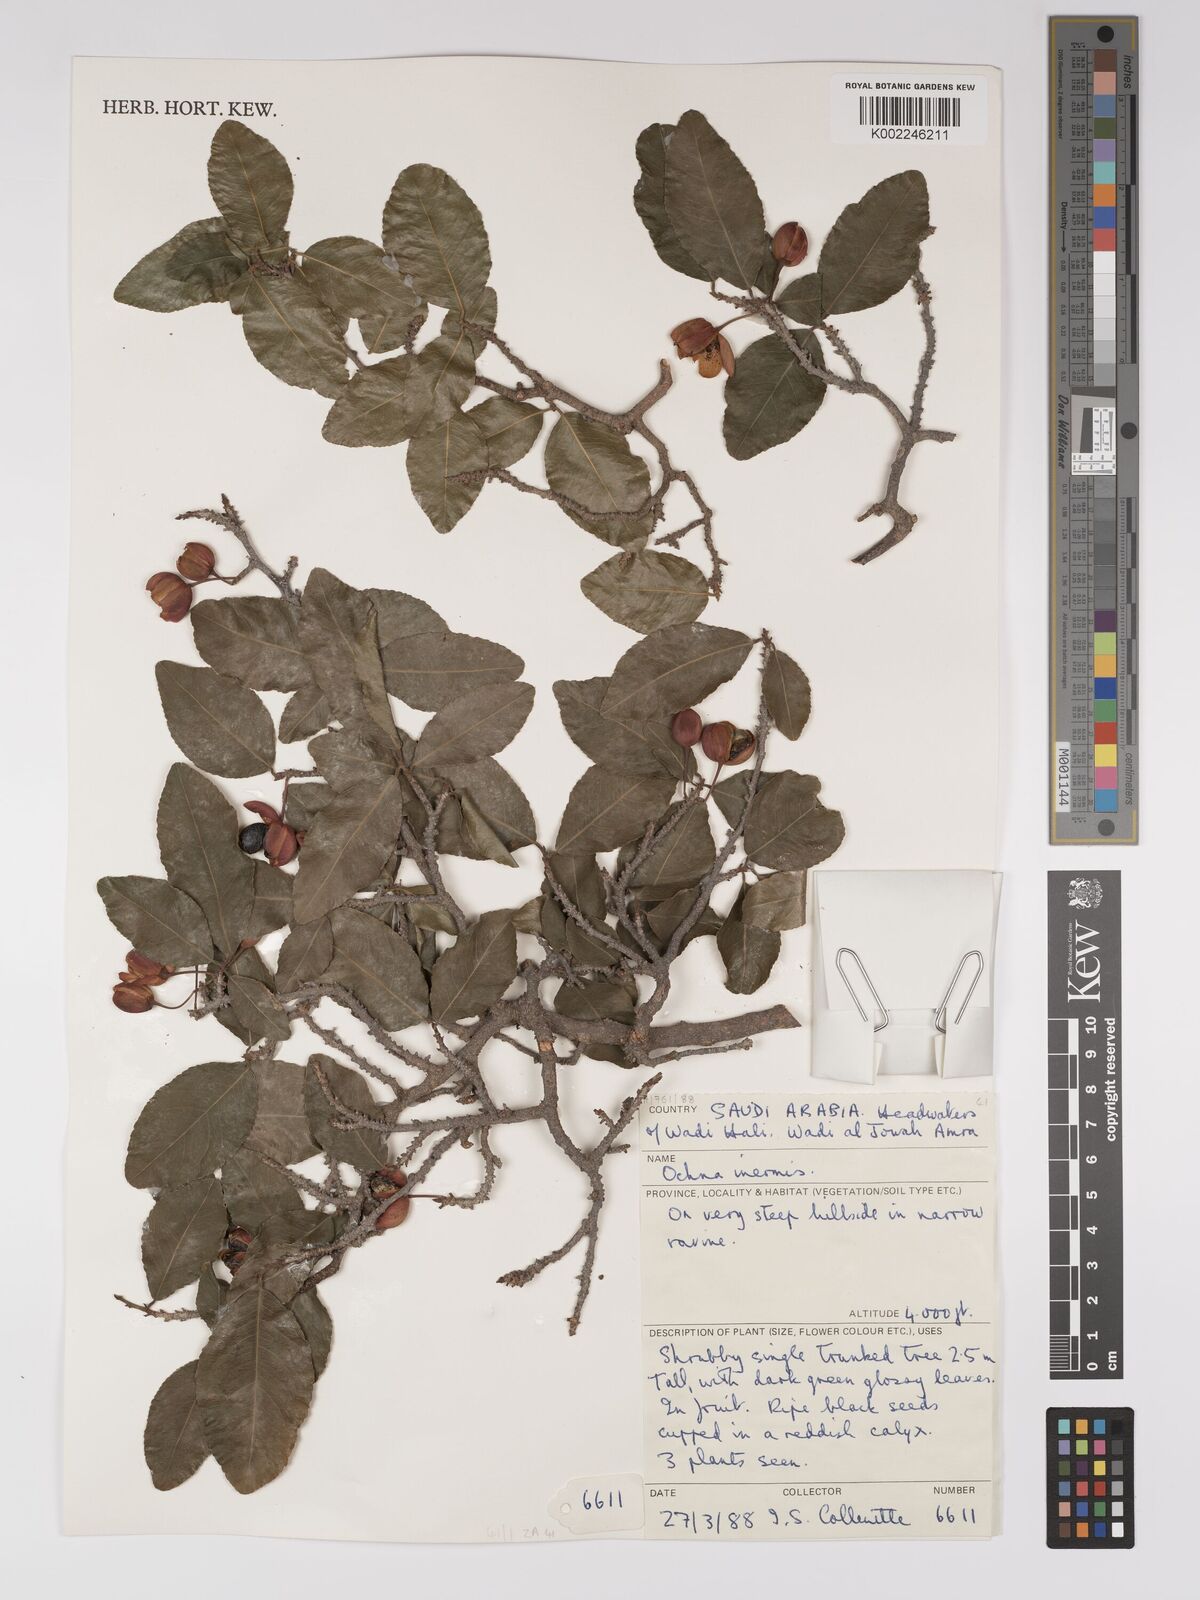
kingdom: Plantae
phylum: Tracheophyta
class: Magnoliopsida
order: Malpighiales
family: Ochnaceae
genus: Ochna
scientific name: Ochna inermis
